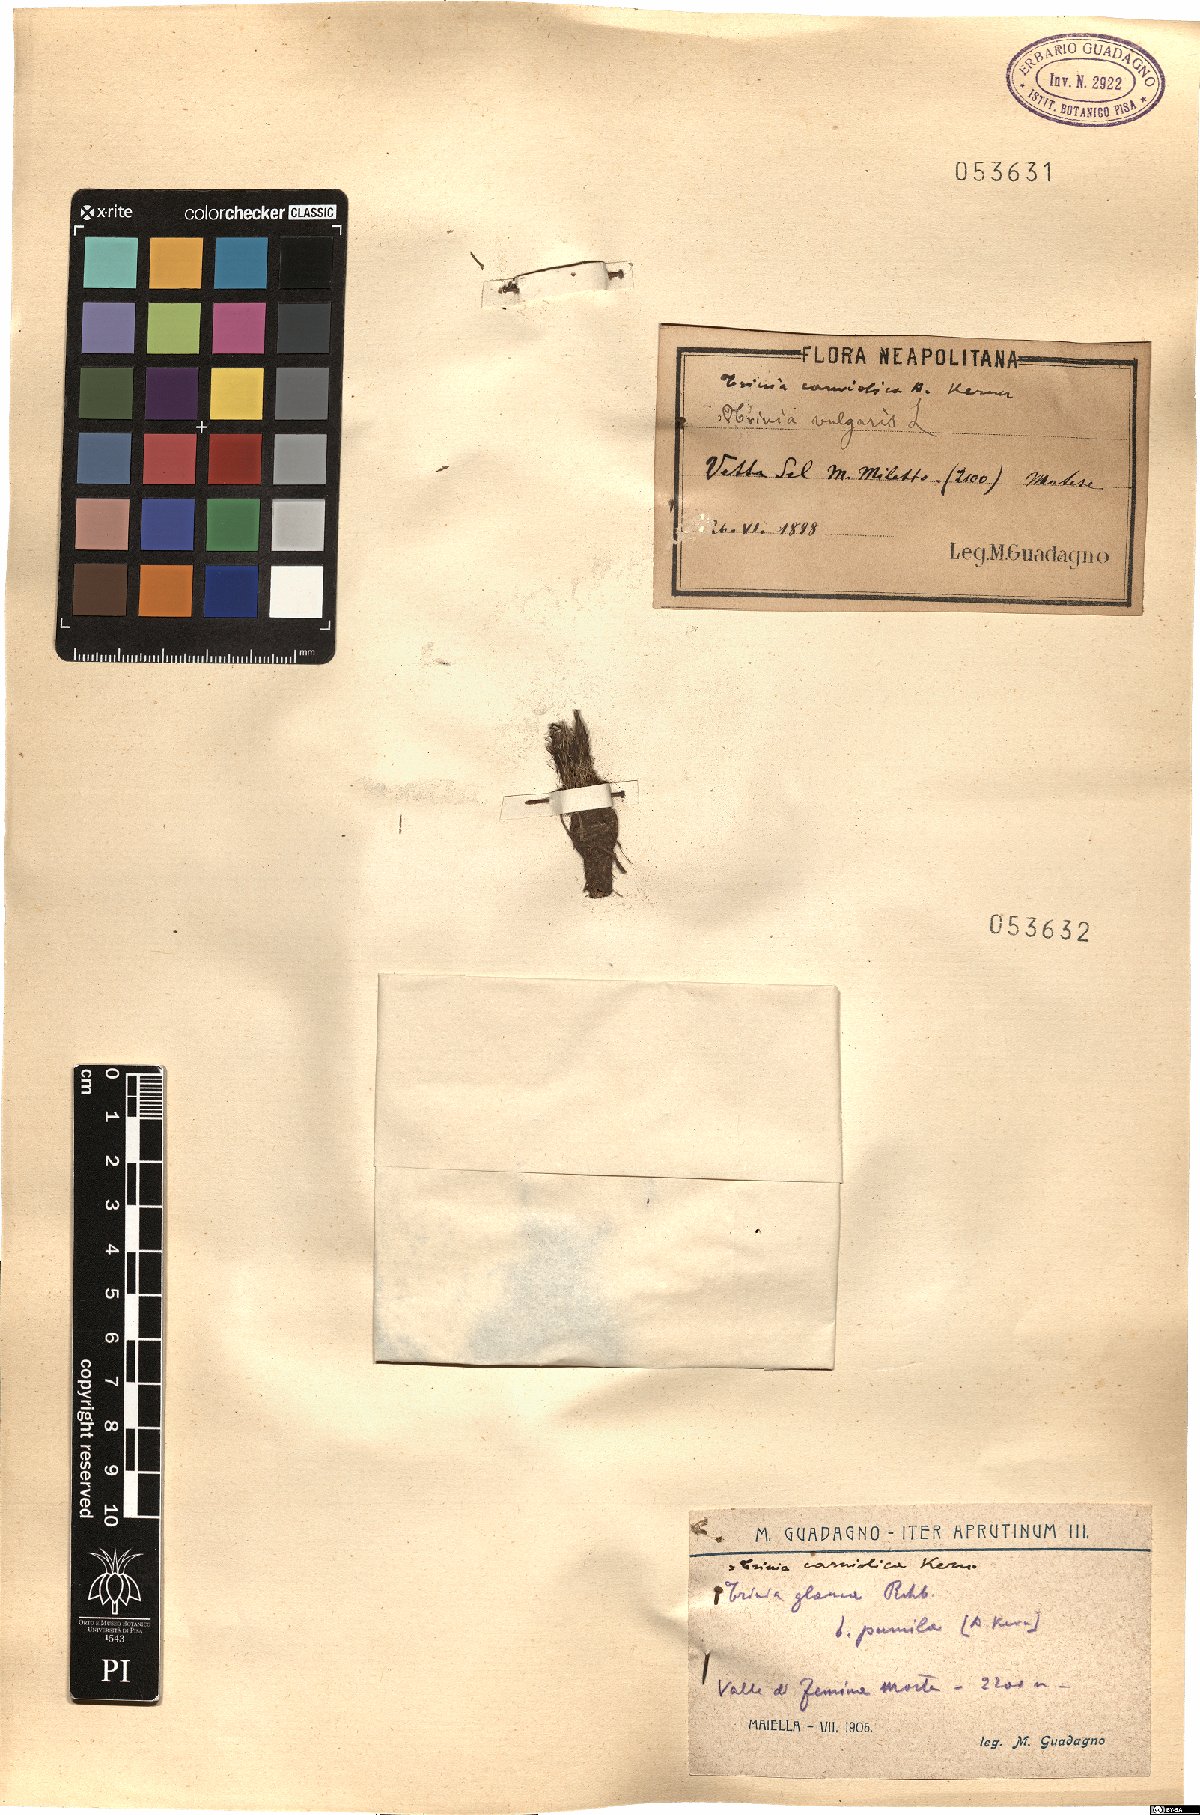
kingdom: Plantae
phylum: Tracheophyta
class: Magnoliopsida
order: Apiales
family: Apiaceae
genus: Trinia
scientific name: Trinia glauca
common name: Honewort
